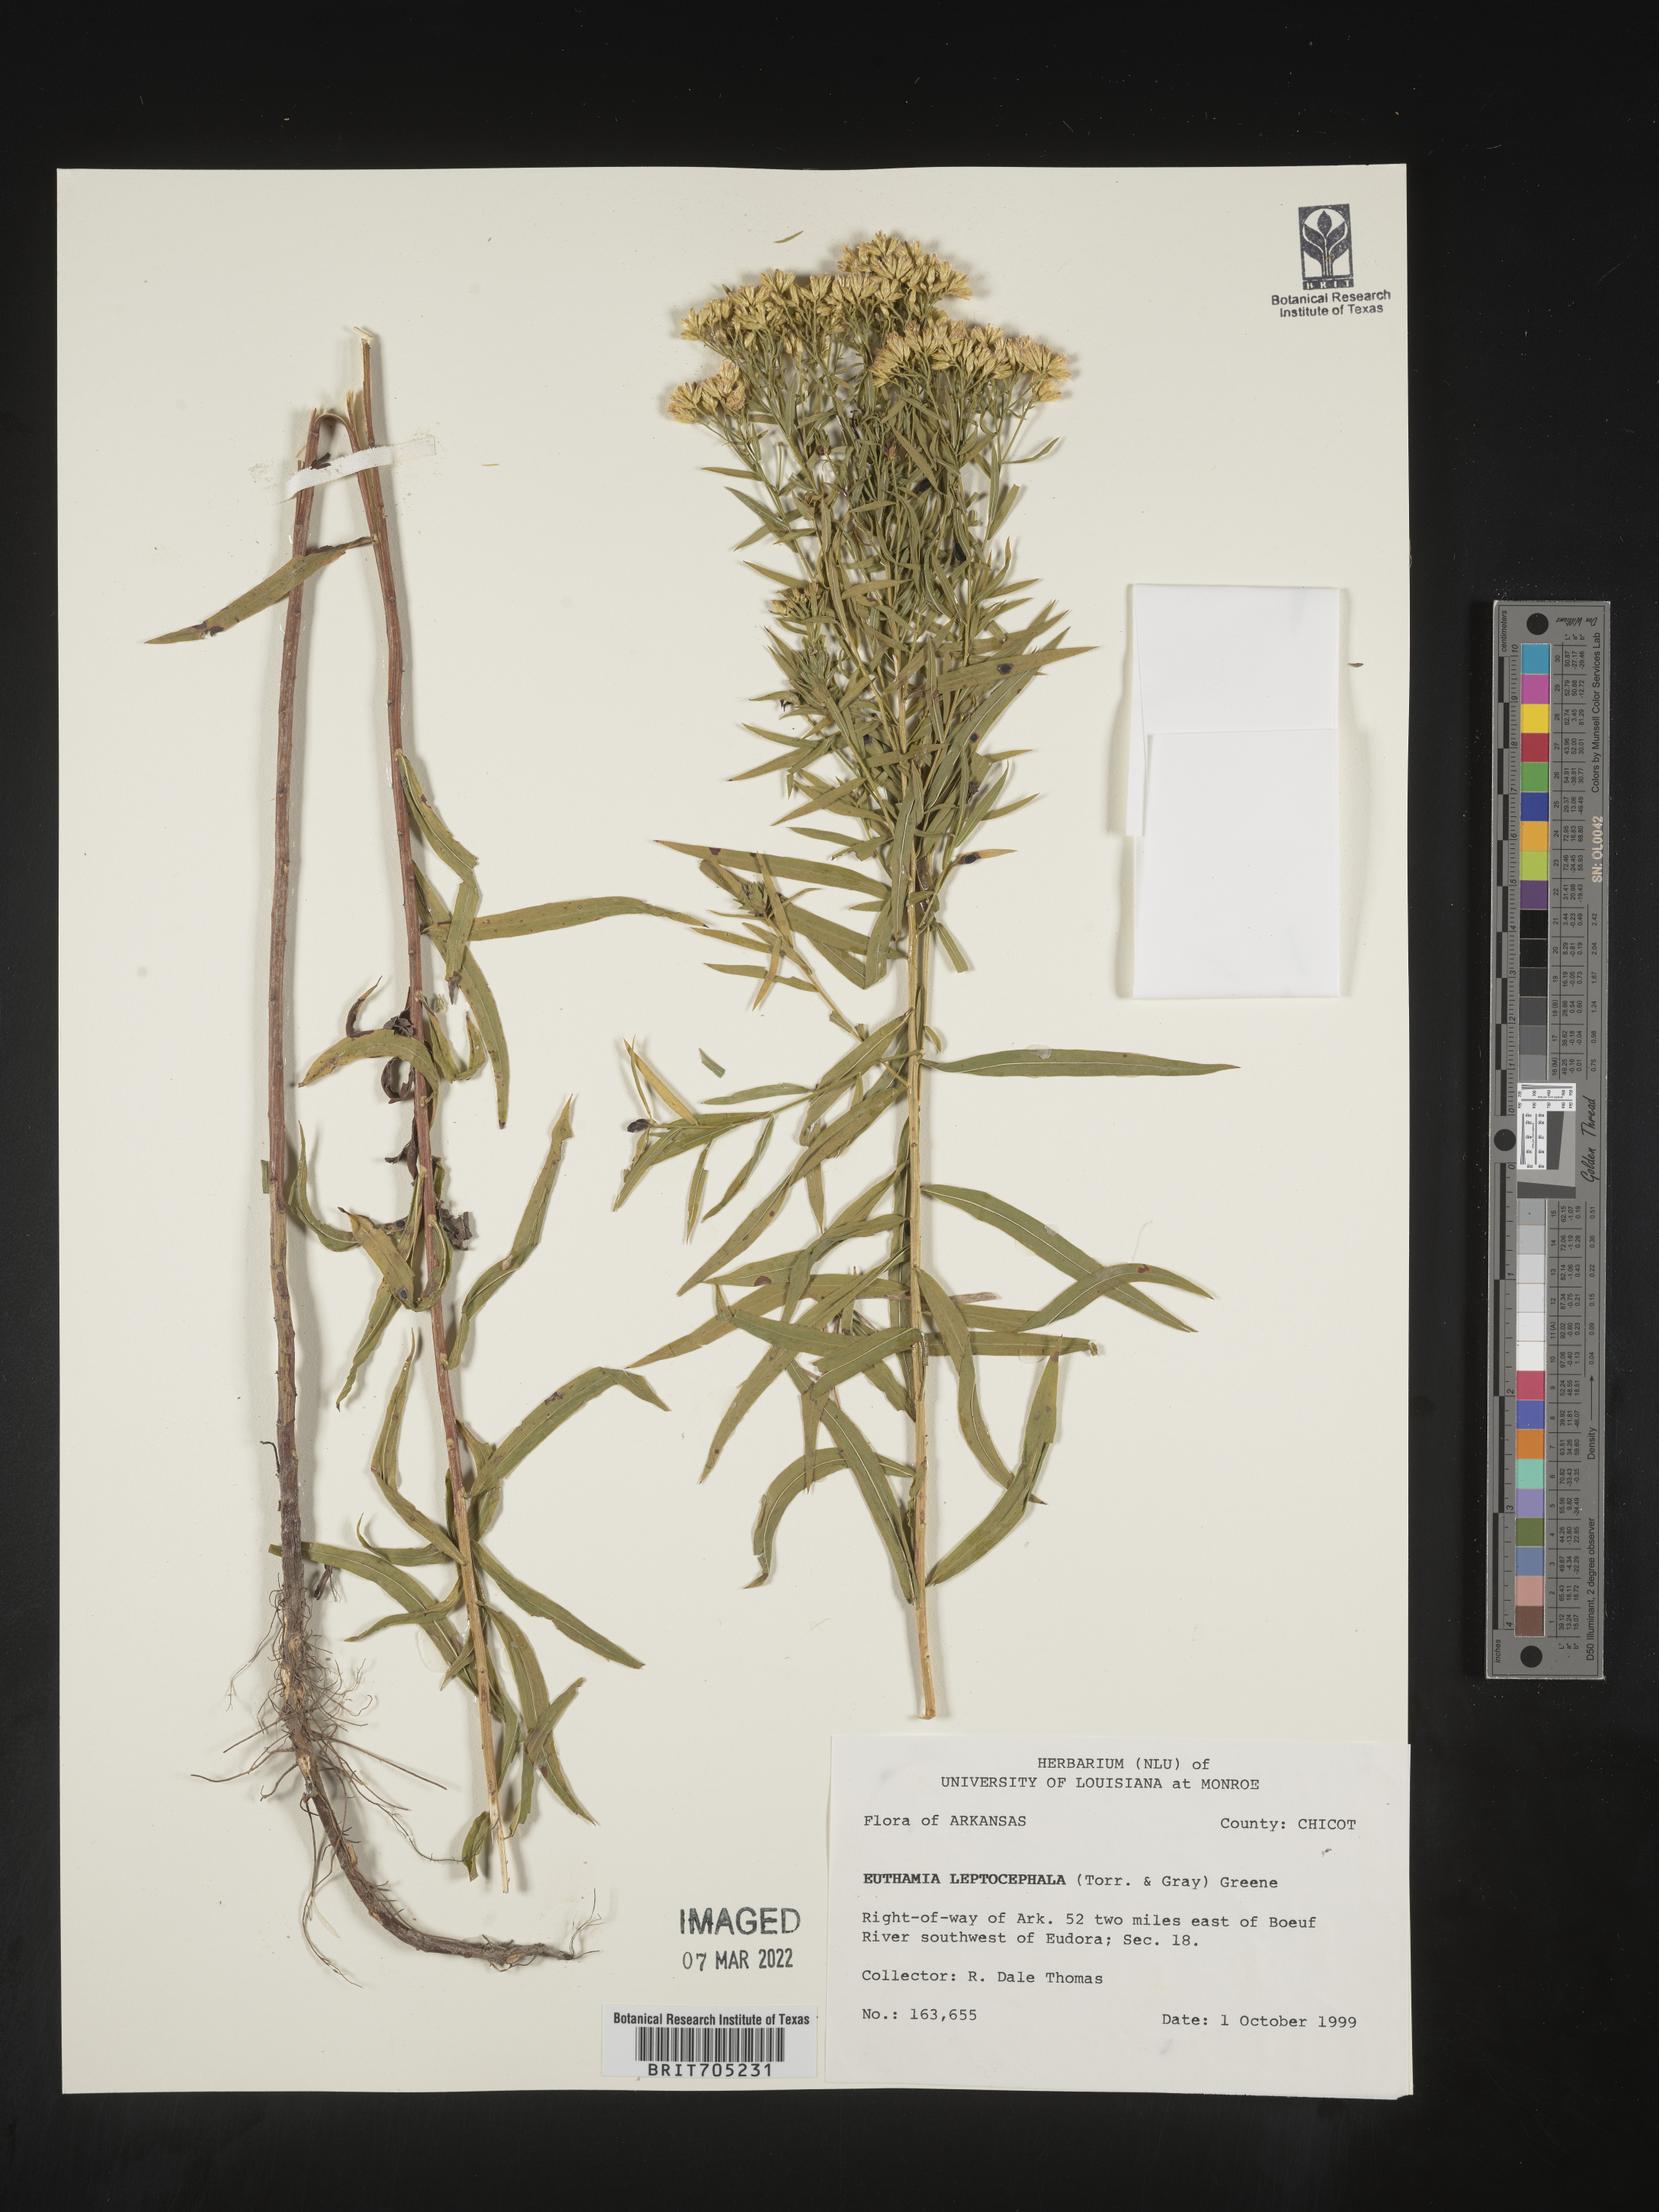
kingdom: Plantae
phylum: Tracheophyta
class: Magnoliopsida
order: Asterales
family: Asteraceae
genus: Euthamia
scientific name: Euthamia leptocephala
